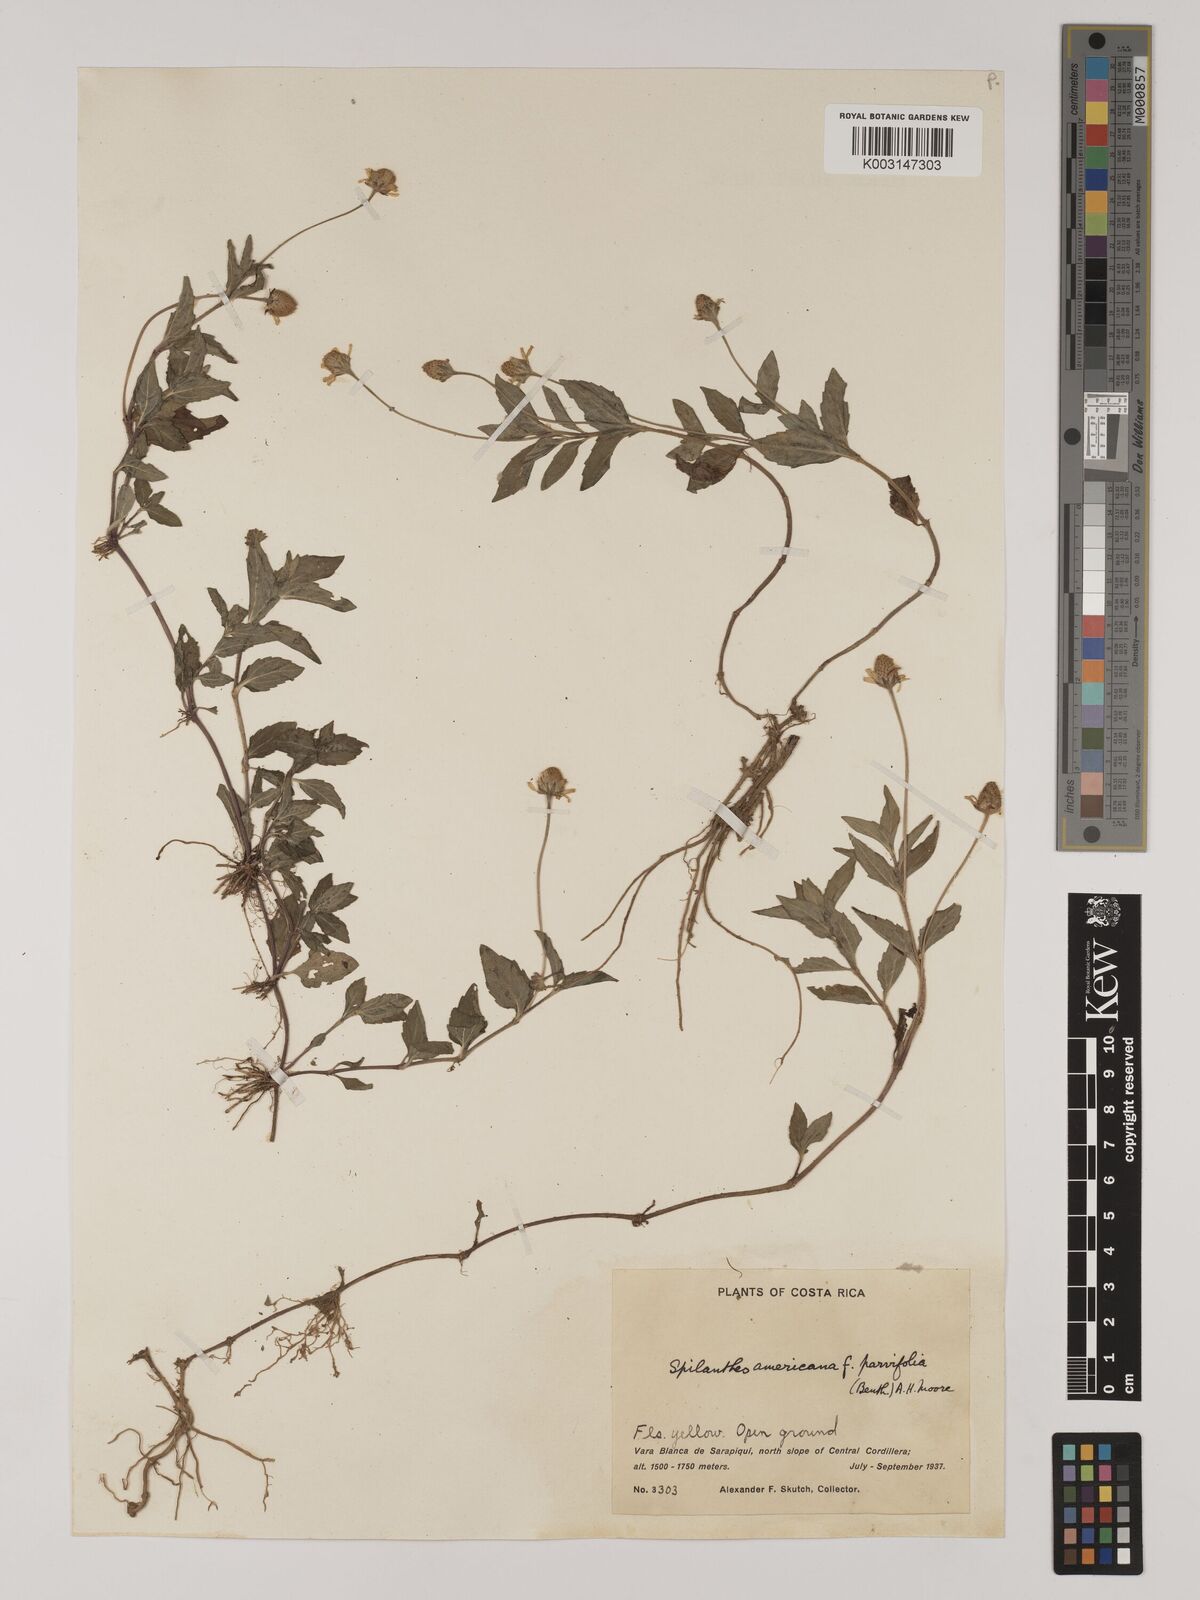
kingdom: Plantae
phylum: Tracheophyta
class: Magnoliopsida
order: Asterales
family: Asteraceae
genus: Acmella
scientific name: Acmella filipes
